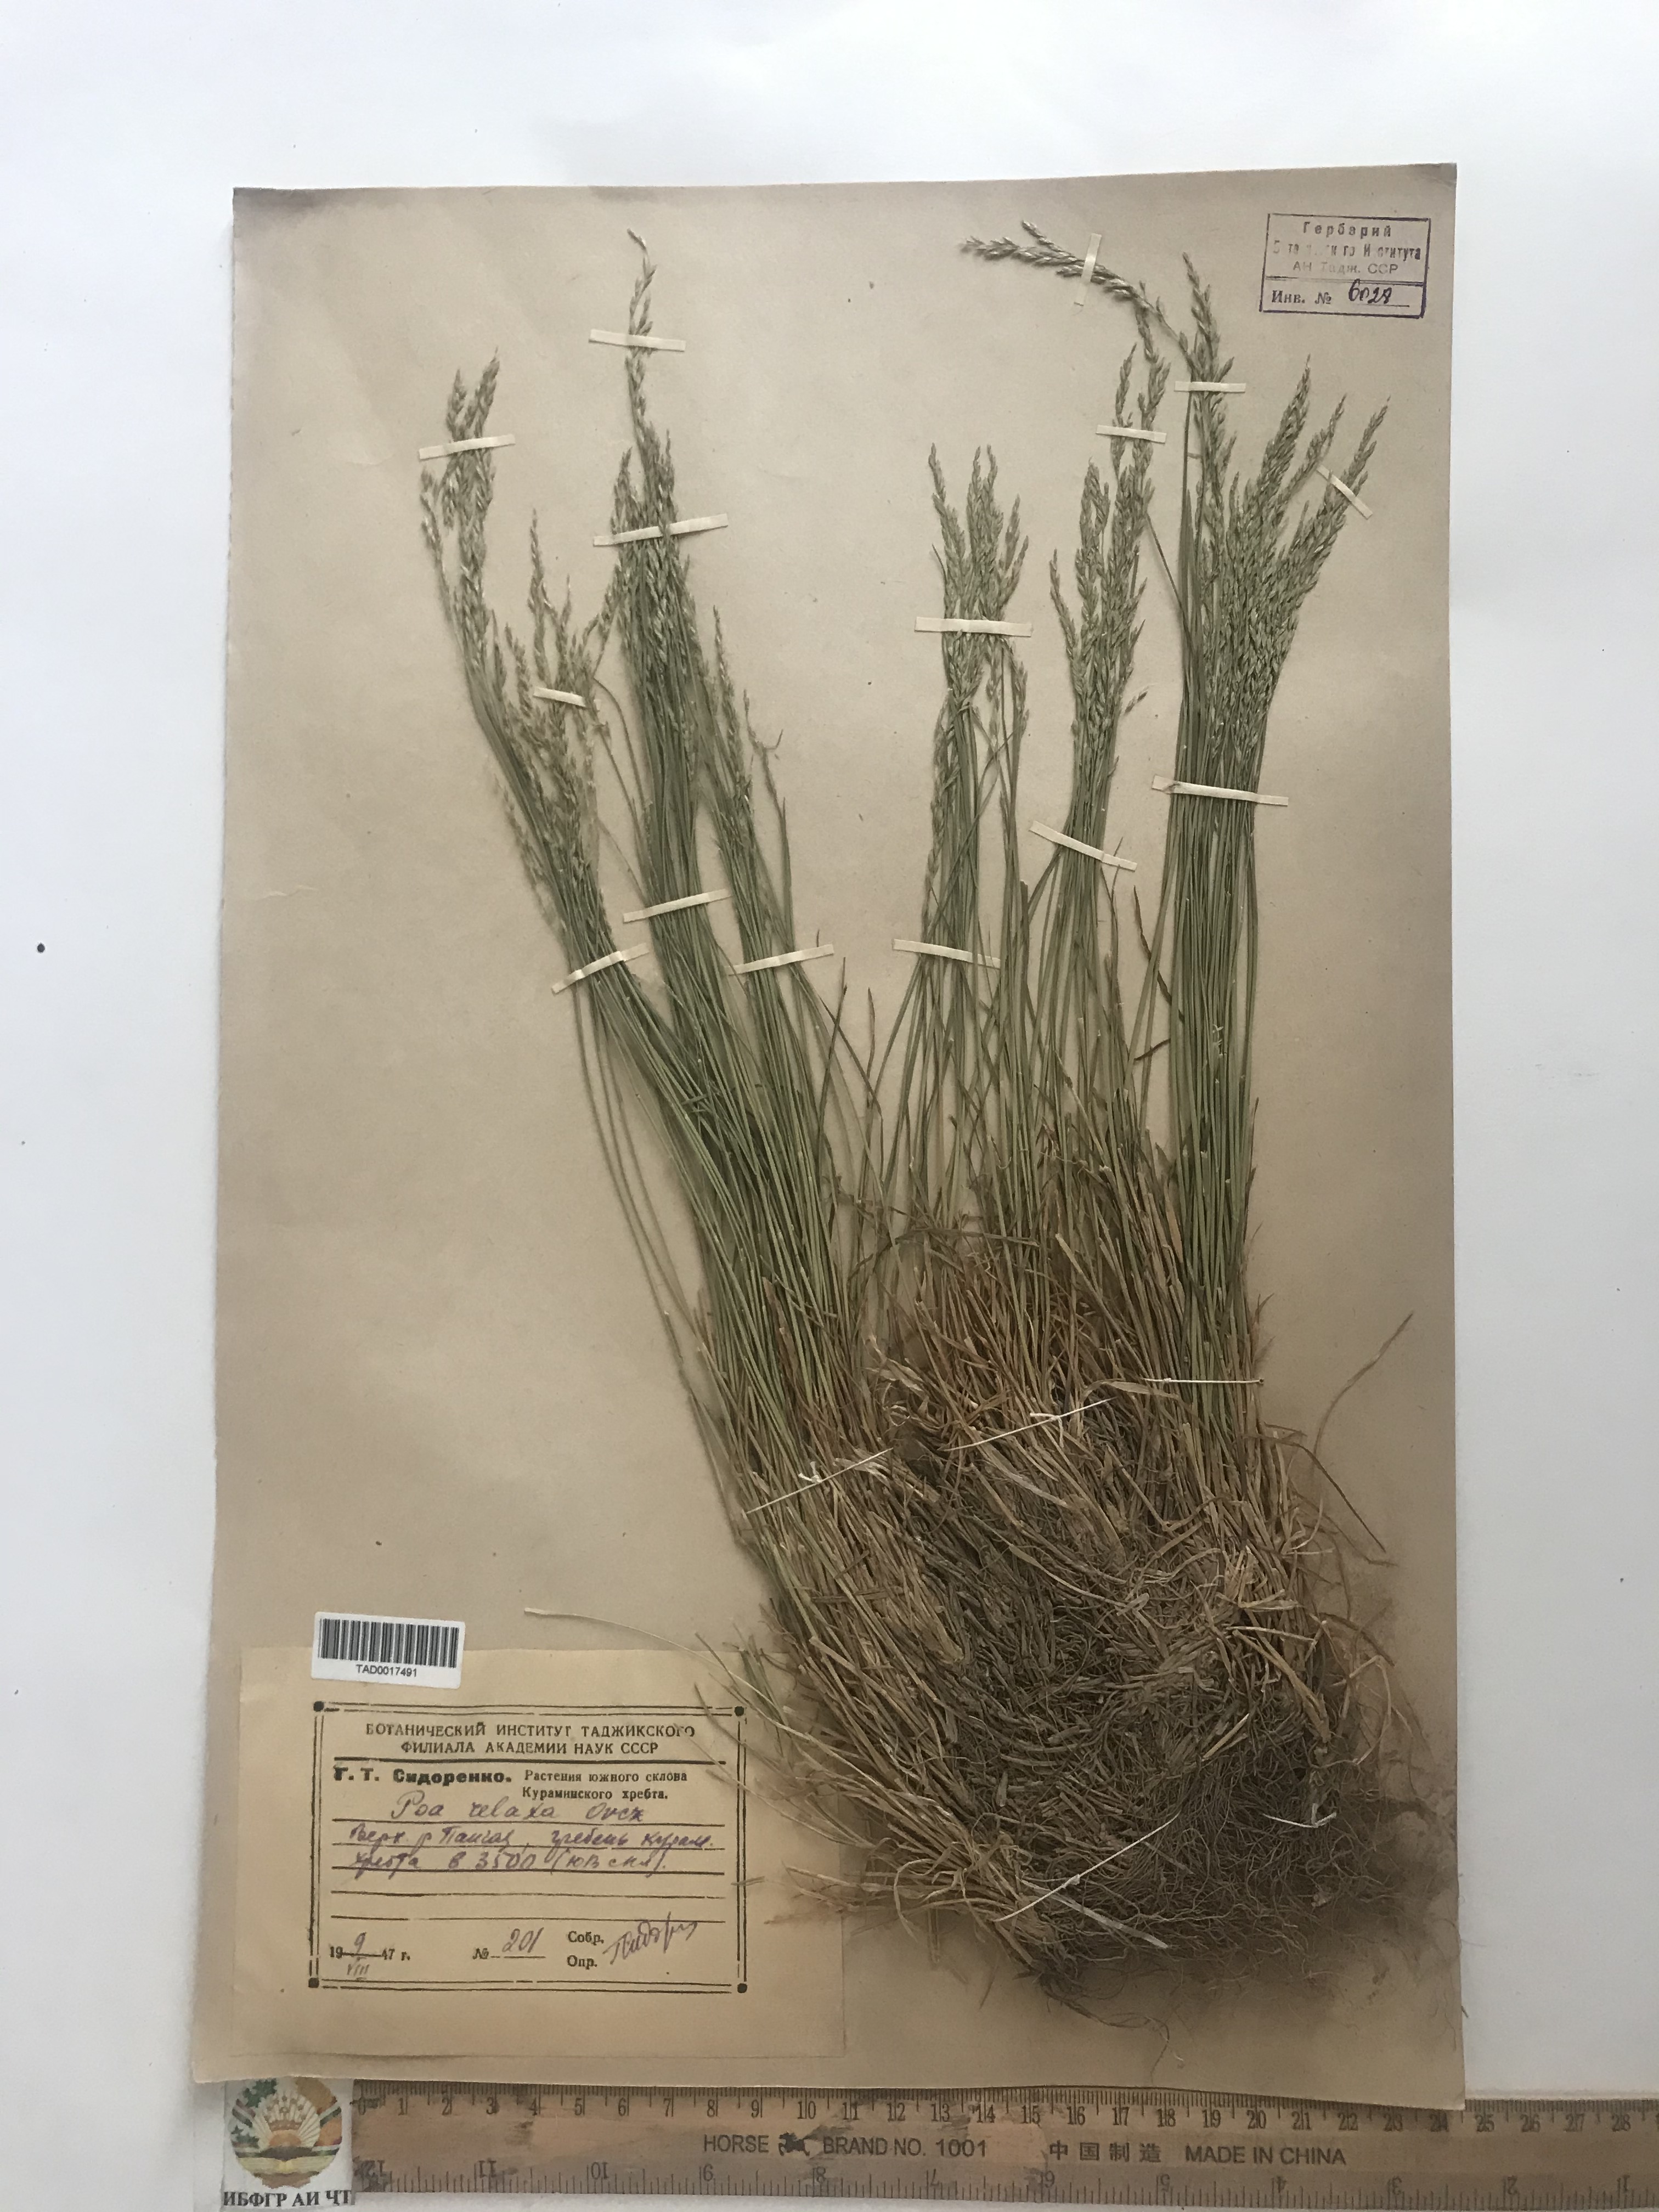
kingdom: Plantae
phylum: Tracheophyta
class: Liliopsida
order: Poales
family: Poaceae
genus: Poa
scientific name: Poa versicolor
